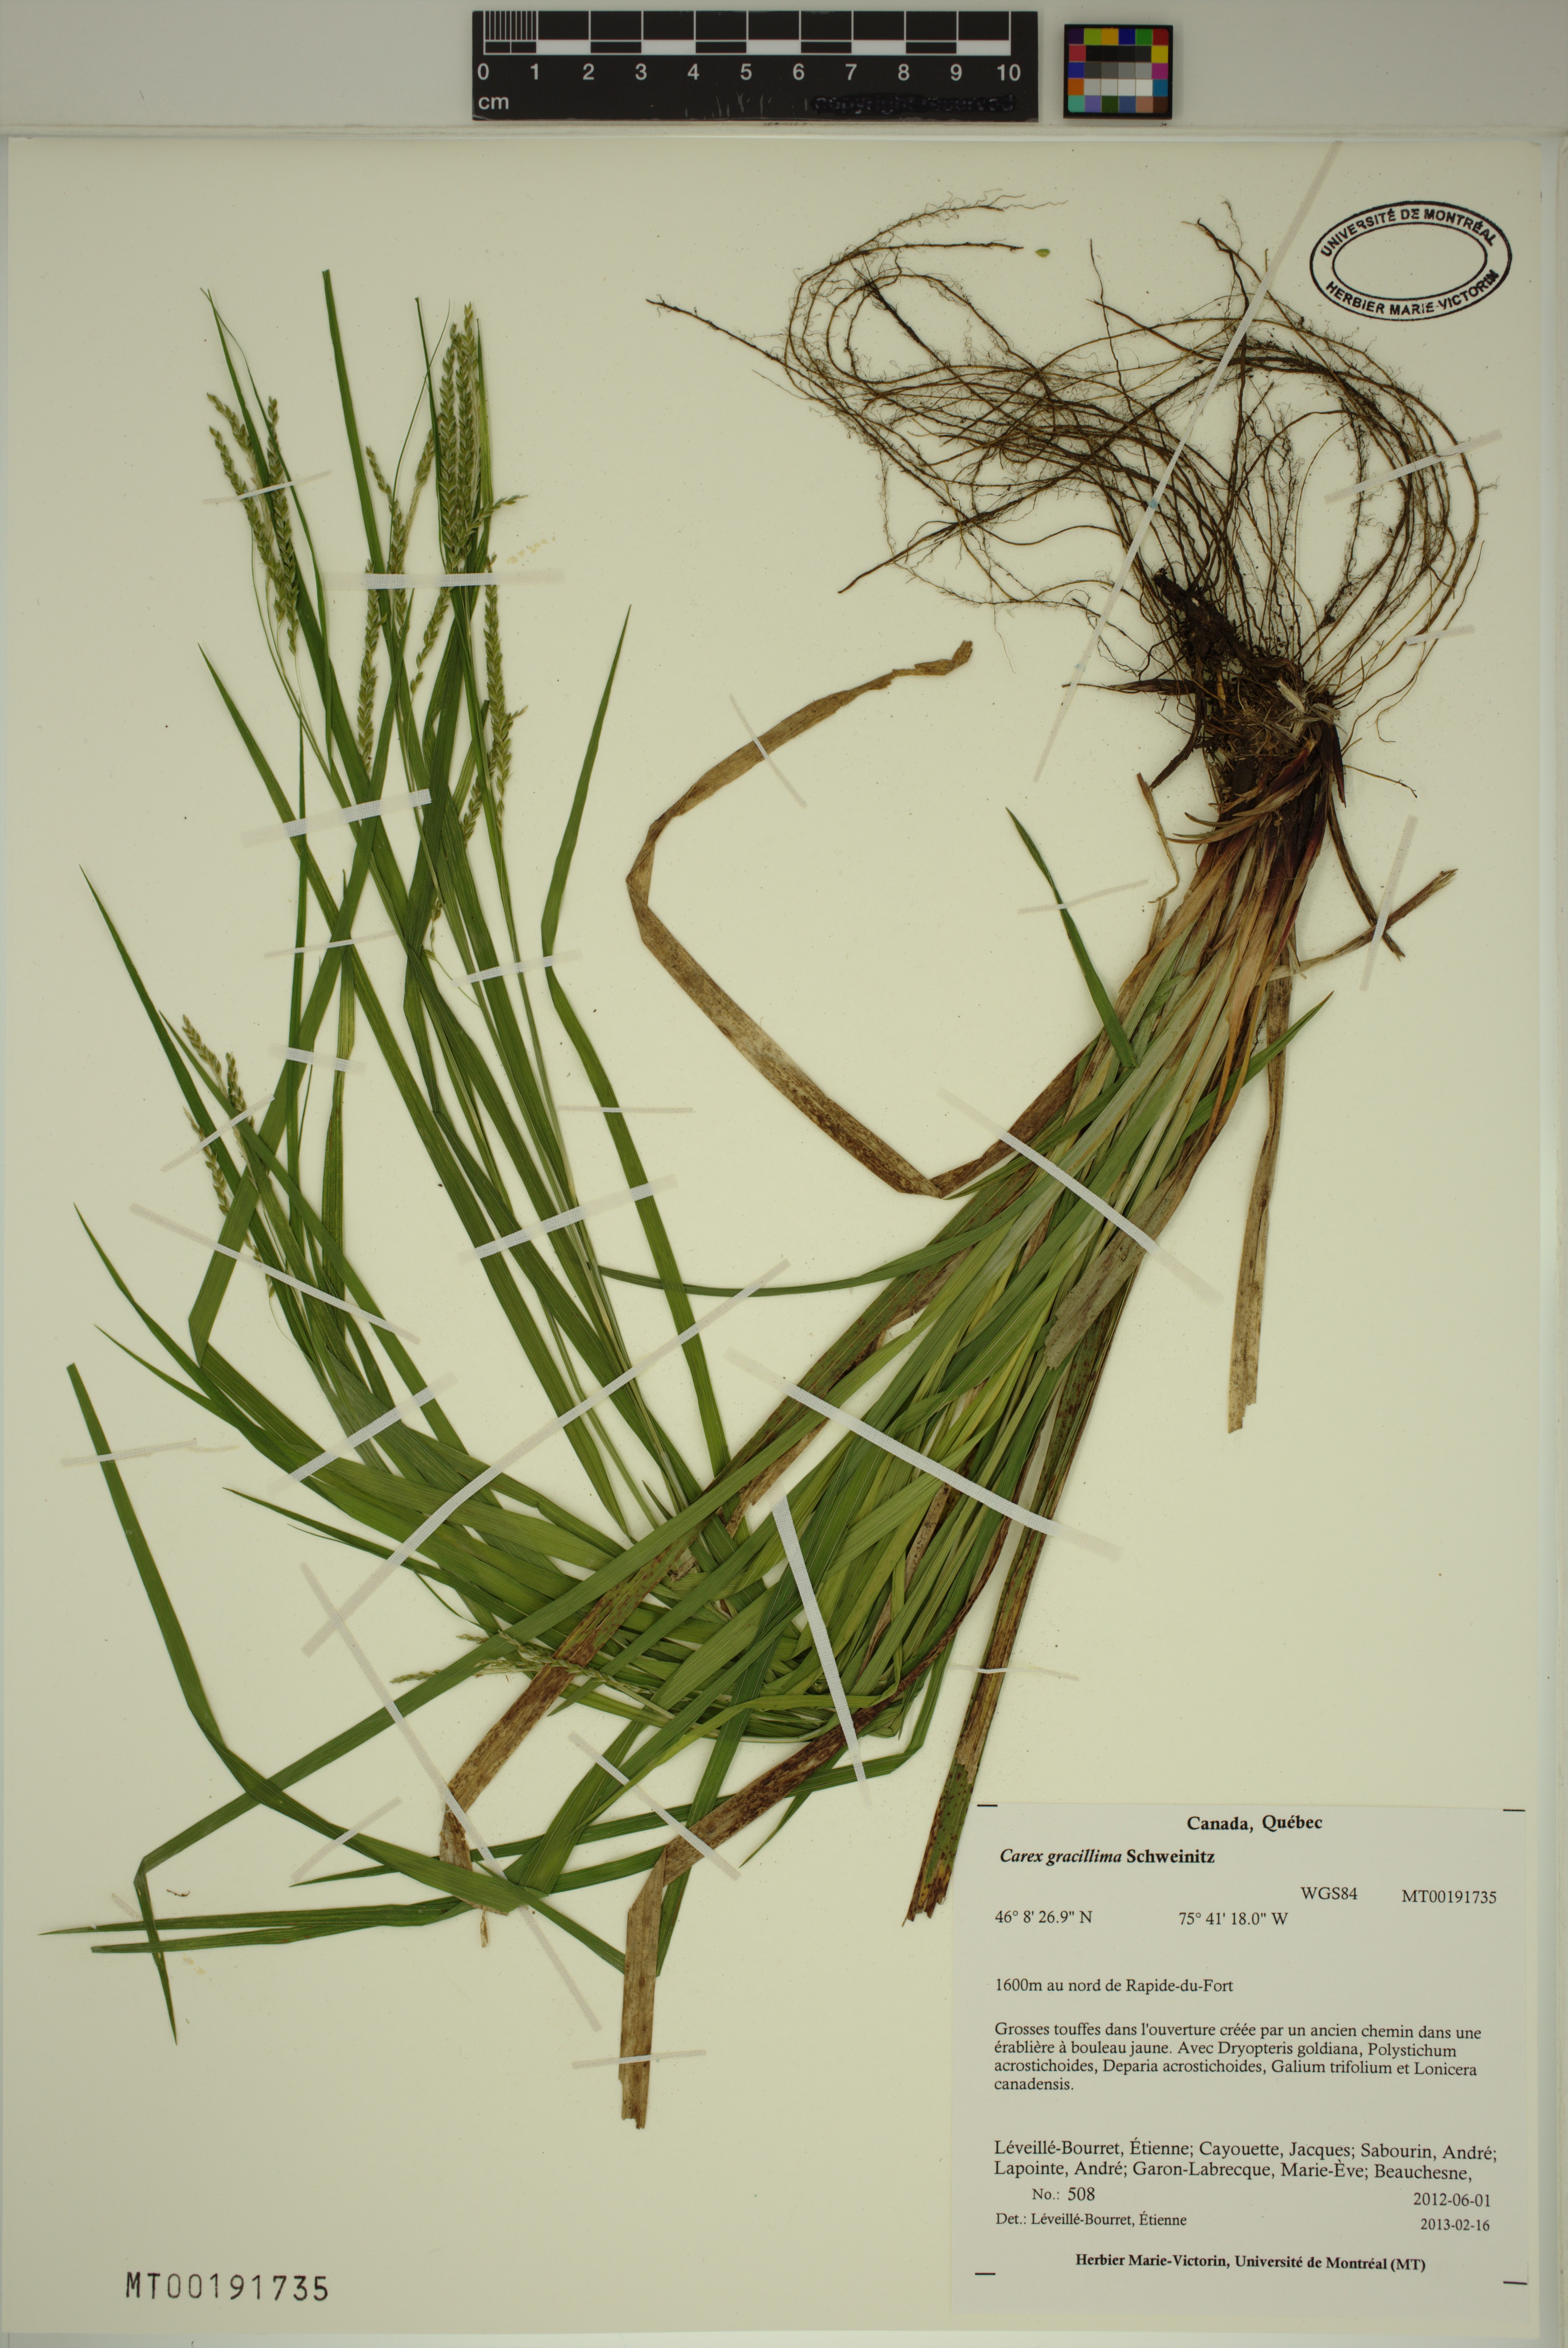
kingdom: Plantae
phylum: Tracheophyta
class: Liliopsida
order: Poales
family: Cyperaceae
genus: Carex
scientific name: Carex gracillima
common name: Graceful sedge
